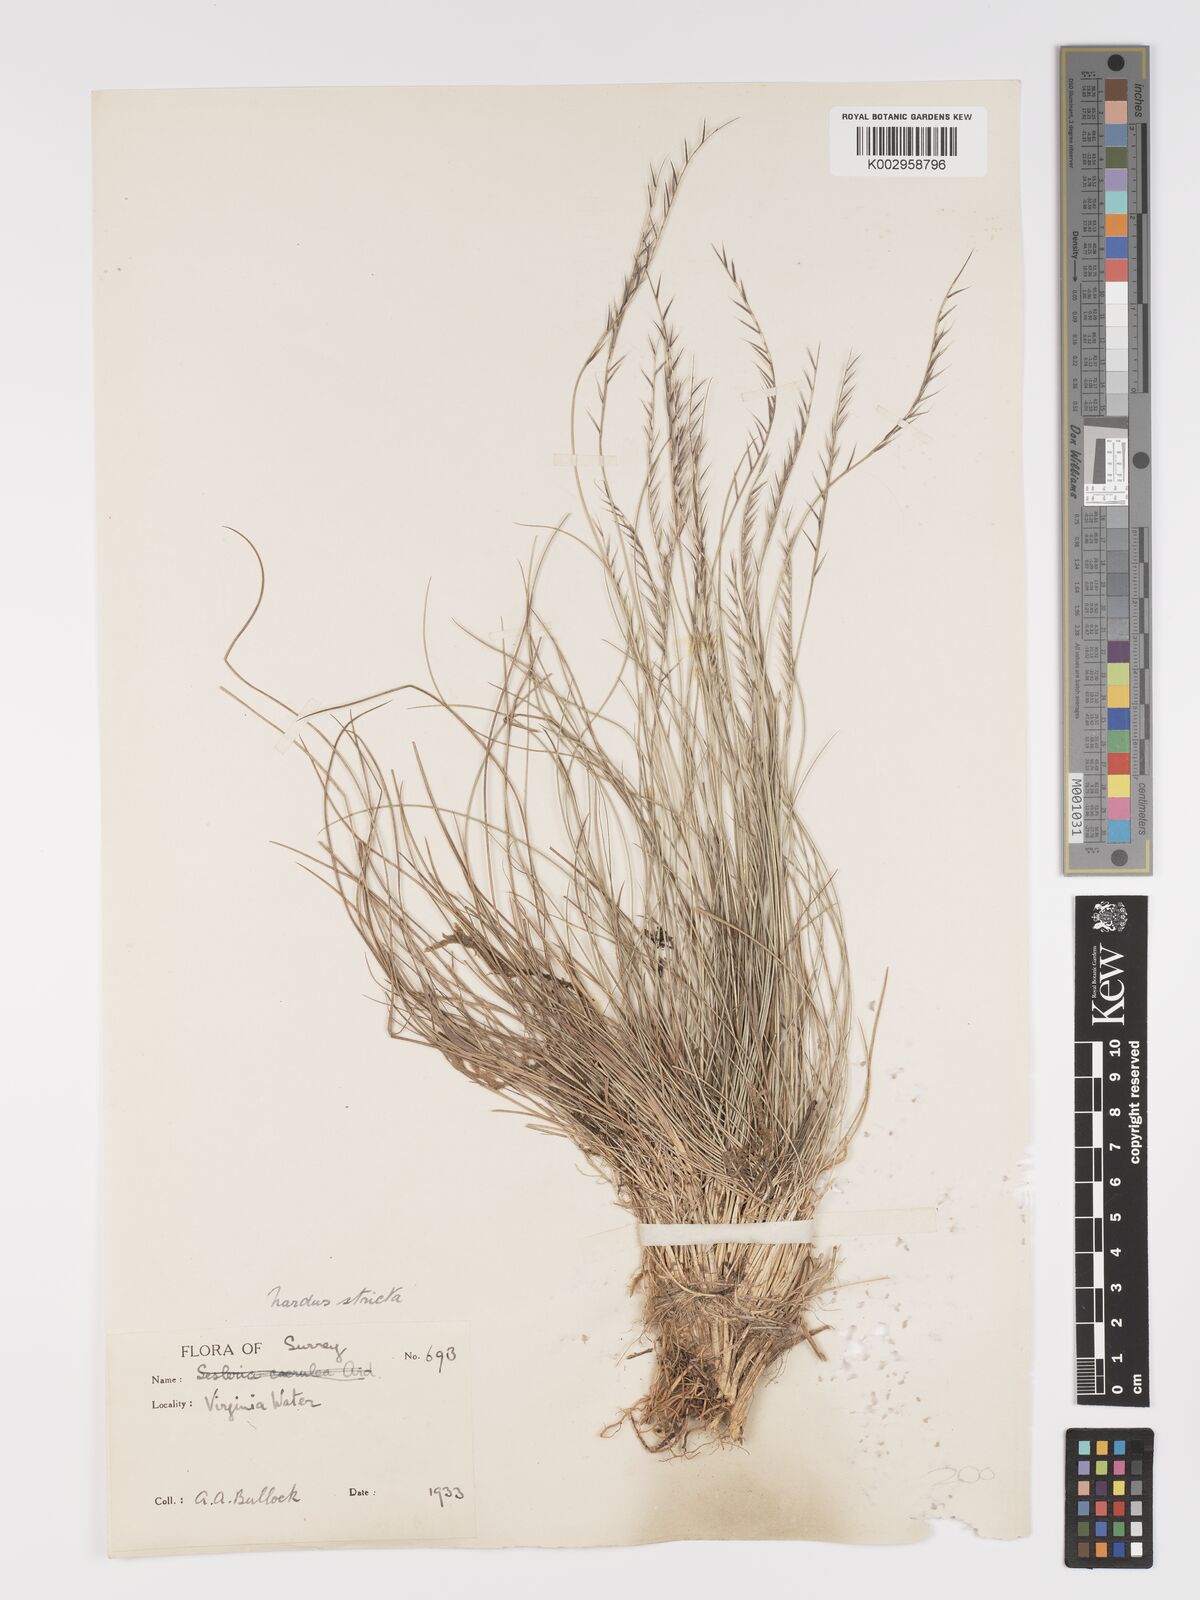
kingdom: Plantae
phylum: Tracheophyta
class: Liliopsida
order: Poales
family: Poaceae
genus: Nardus
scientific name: Nardus stricta
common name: Mat-grass
